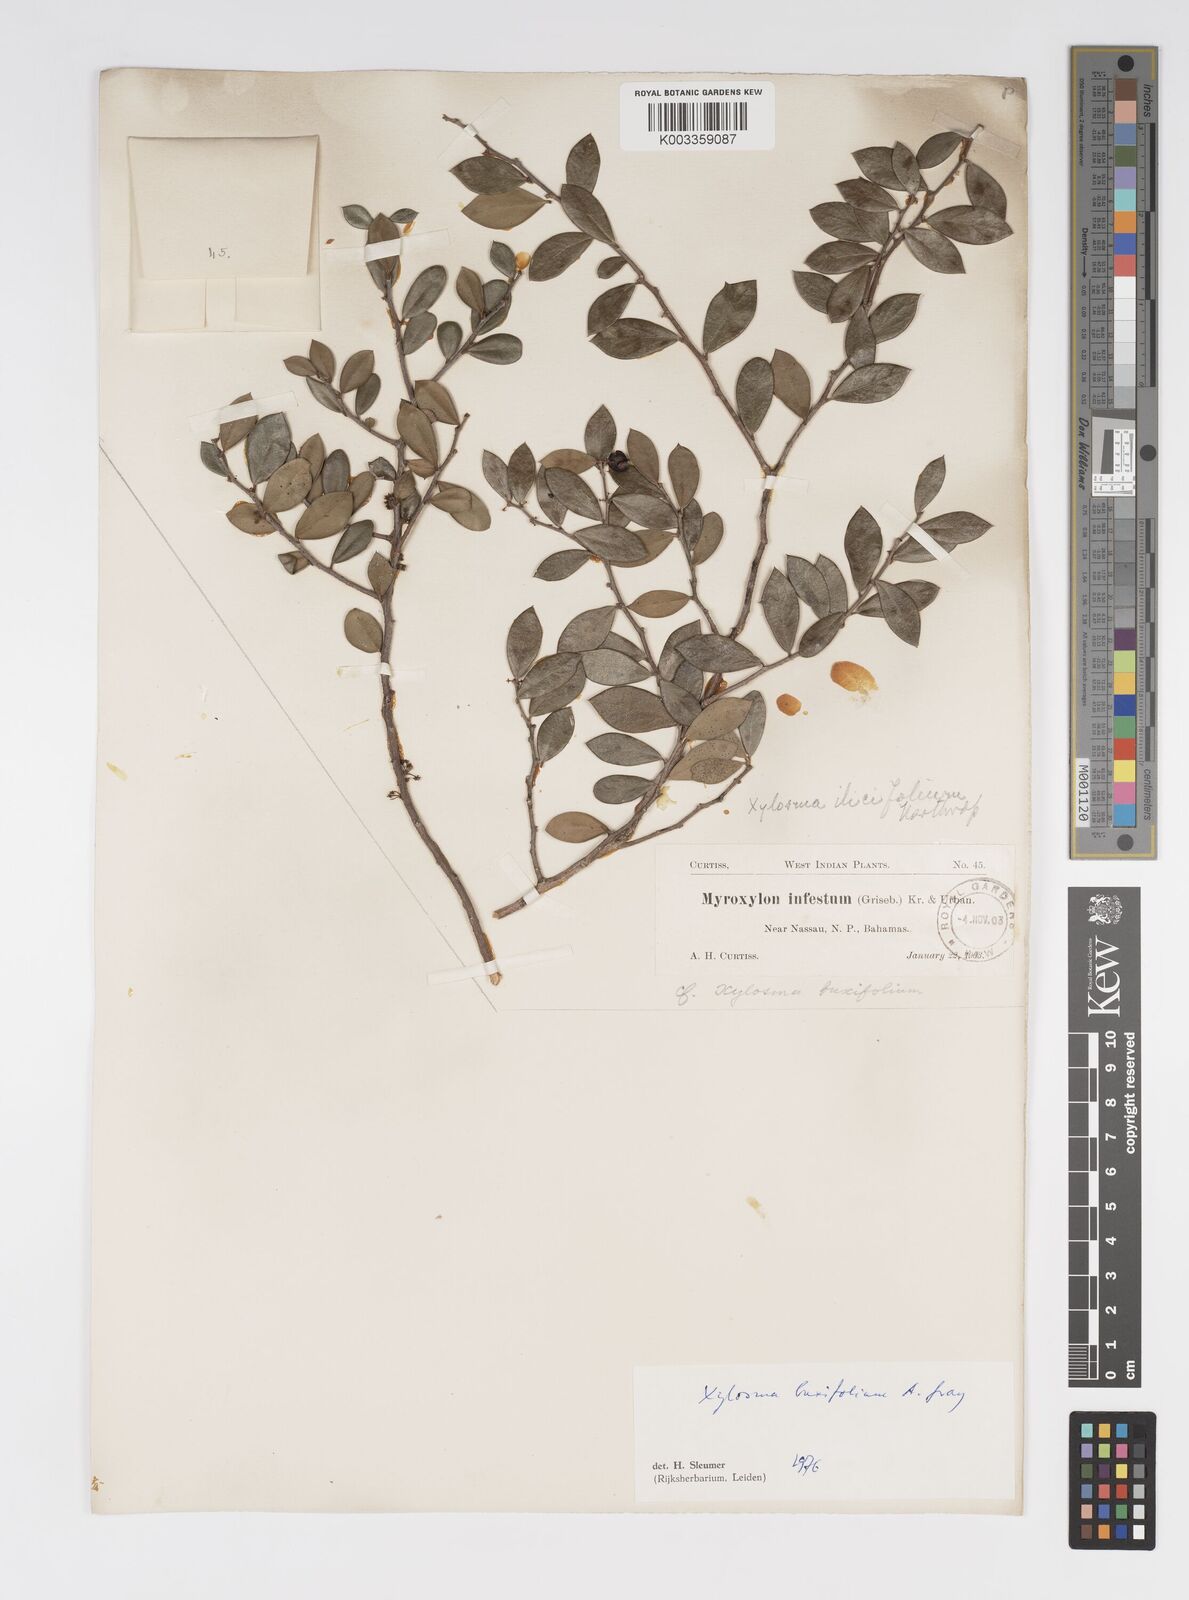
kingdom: Plantae
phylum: Tracheophyta
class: Magnoliopsida
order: Malpighiales
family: Salicaceae
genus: Xylosma
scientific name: Xylosma buxifolia
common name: Cockspur
